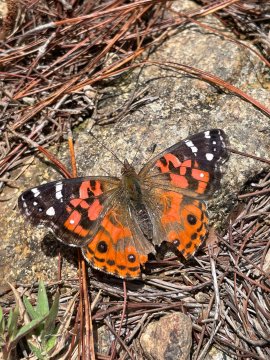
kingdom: Animalia
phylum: Arthropoda
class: Insecta
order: Lepidoptera
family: Nymphalidae
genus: Vanessa
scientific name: Vanessa braziliensis
